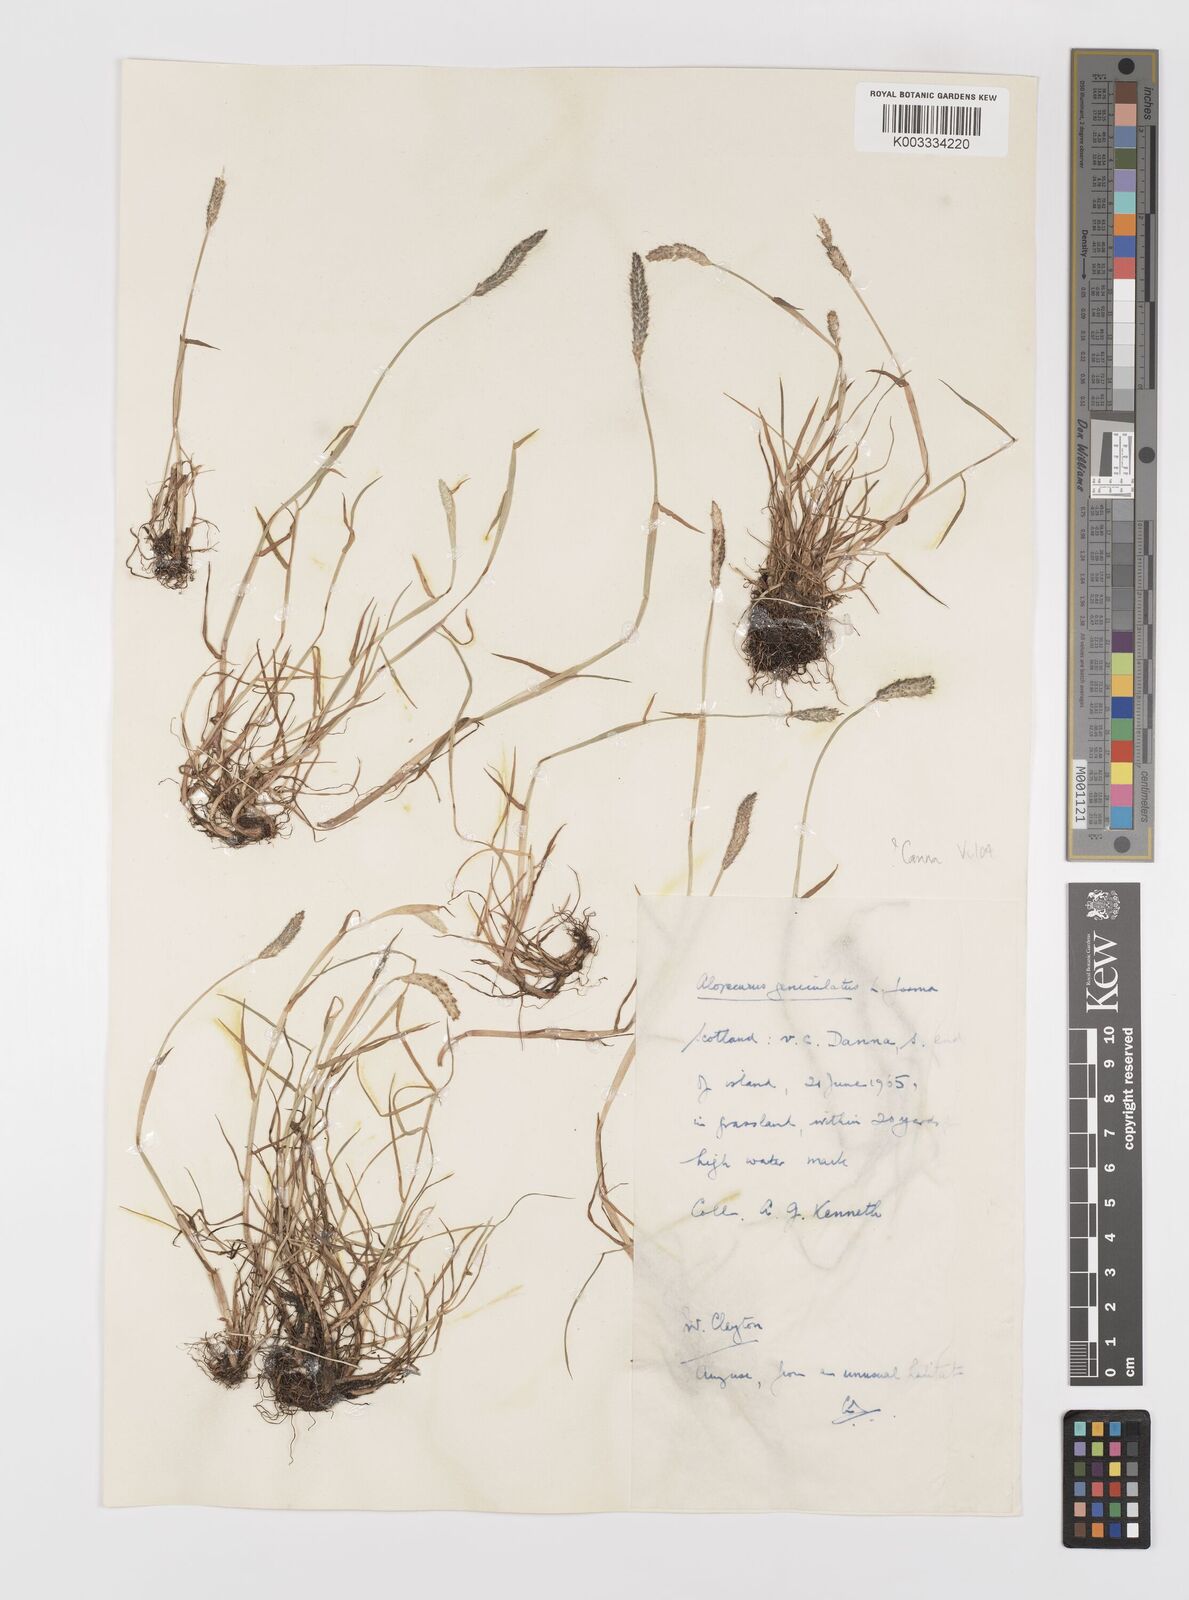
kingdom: Plantae
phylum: Tracheophyta
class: Liliopsida
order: Poales
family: Poaceae
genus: Alopecurus
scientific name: Alopecurus geniculatus
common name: Water foxtail
